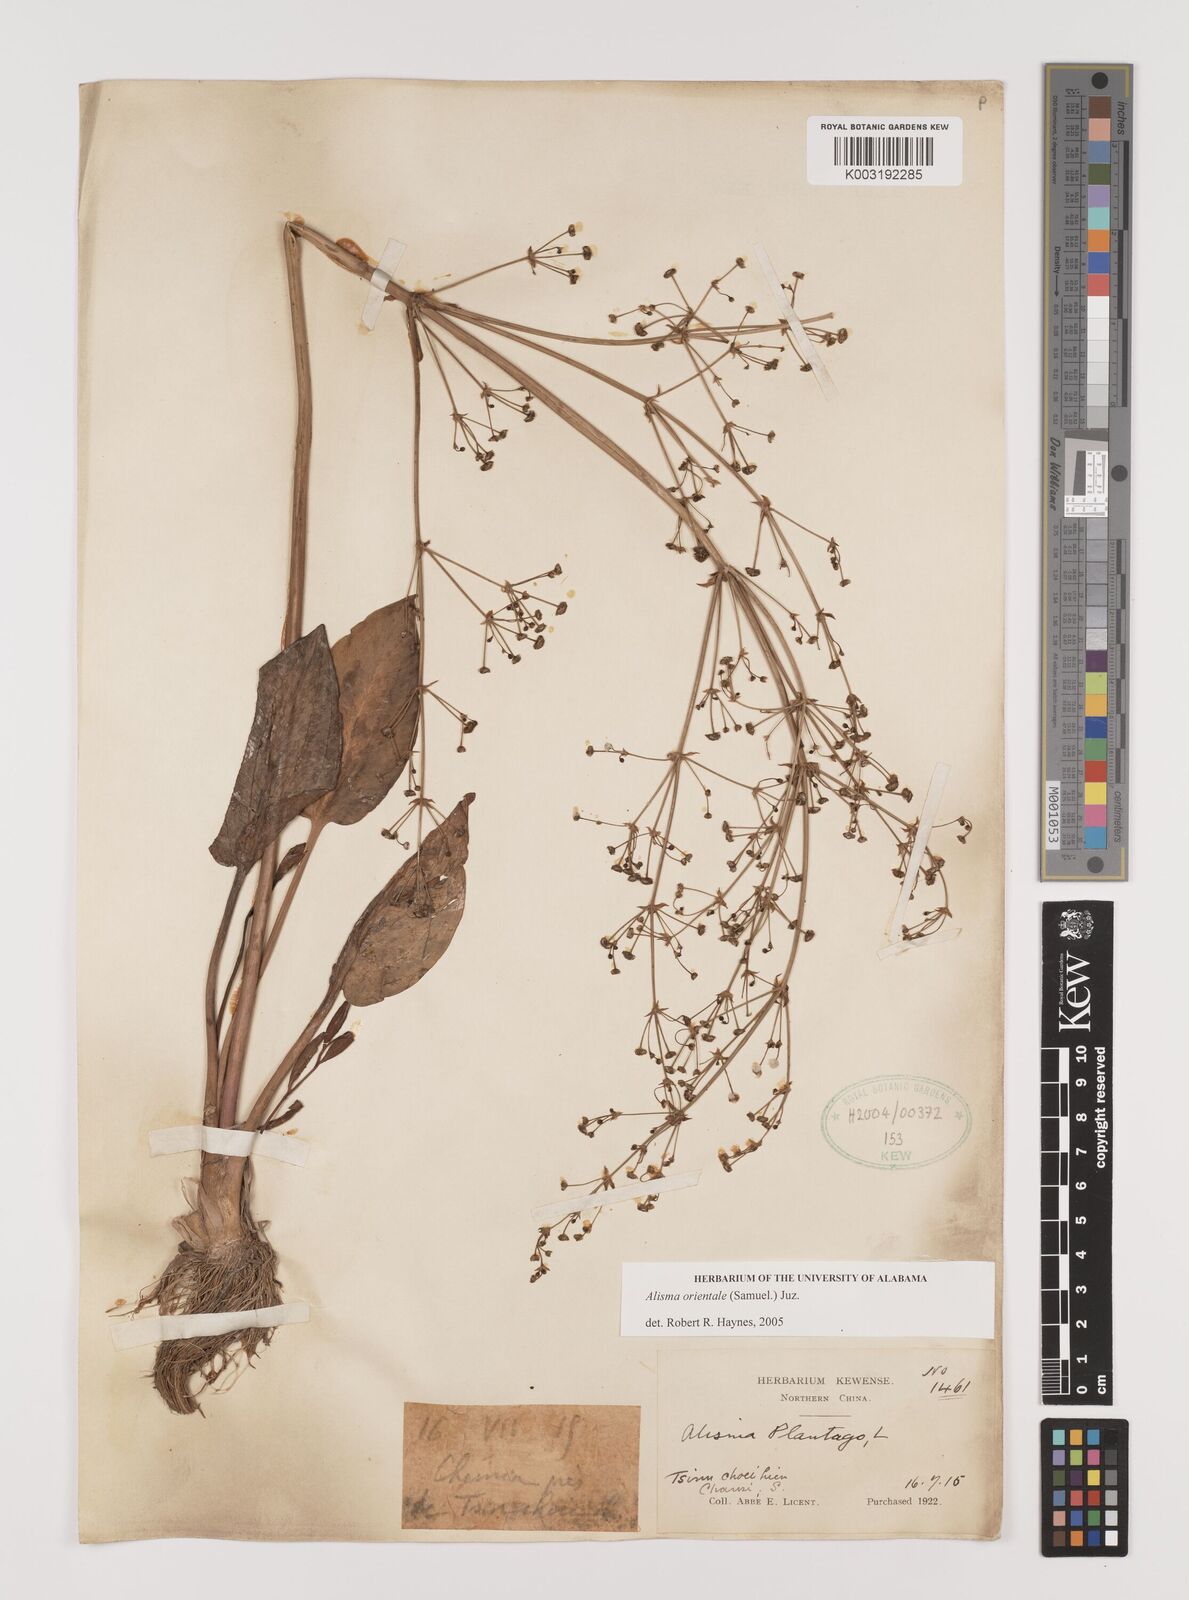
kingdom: Plantae
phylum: Tracheophyta
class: Liliopsida
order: Alismatales
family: Alismataceae
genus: Alisma
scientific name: Alisma plantago-aquatica
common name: Water-plantain
